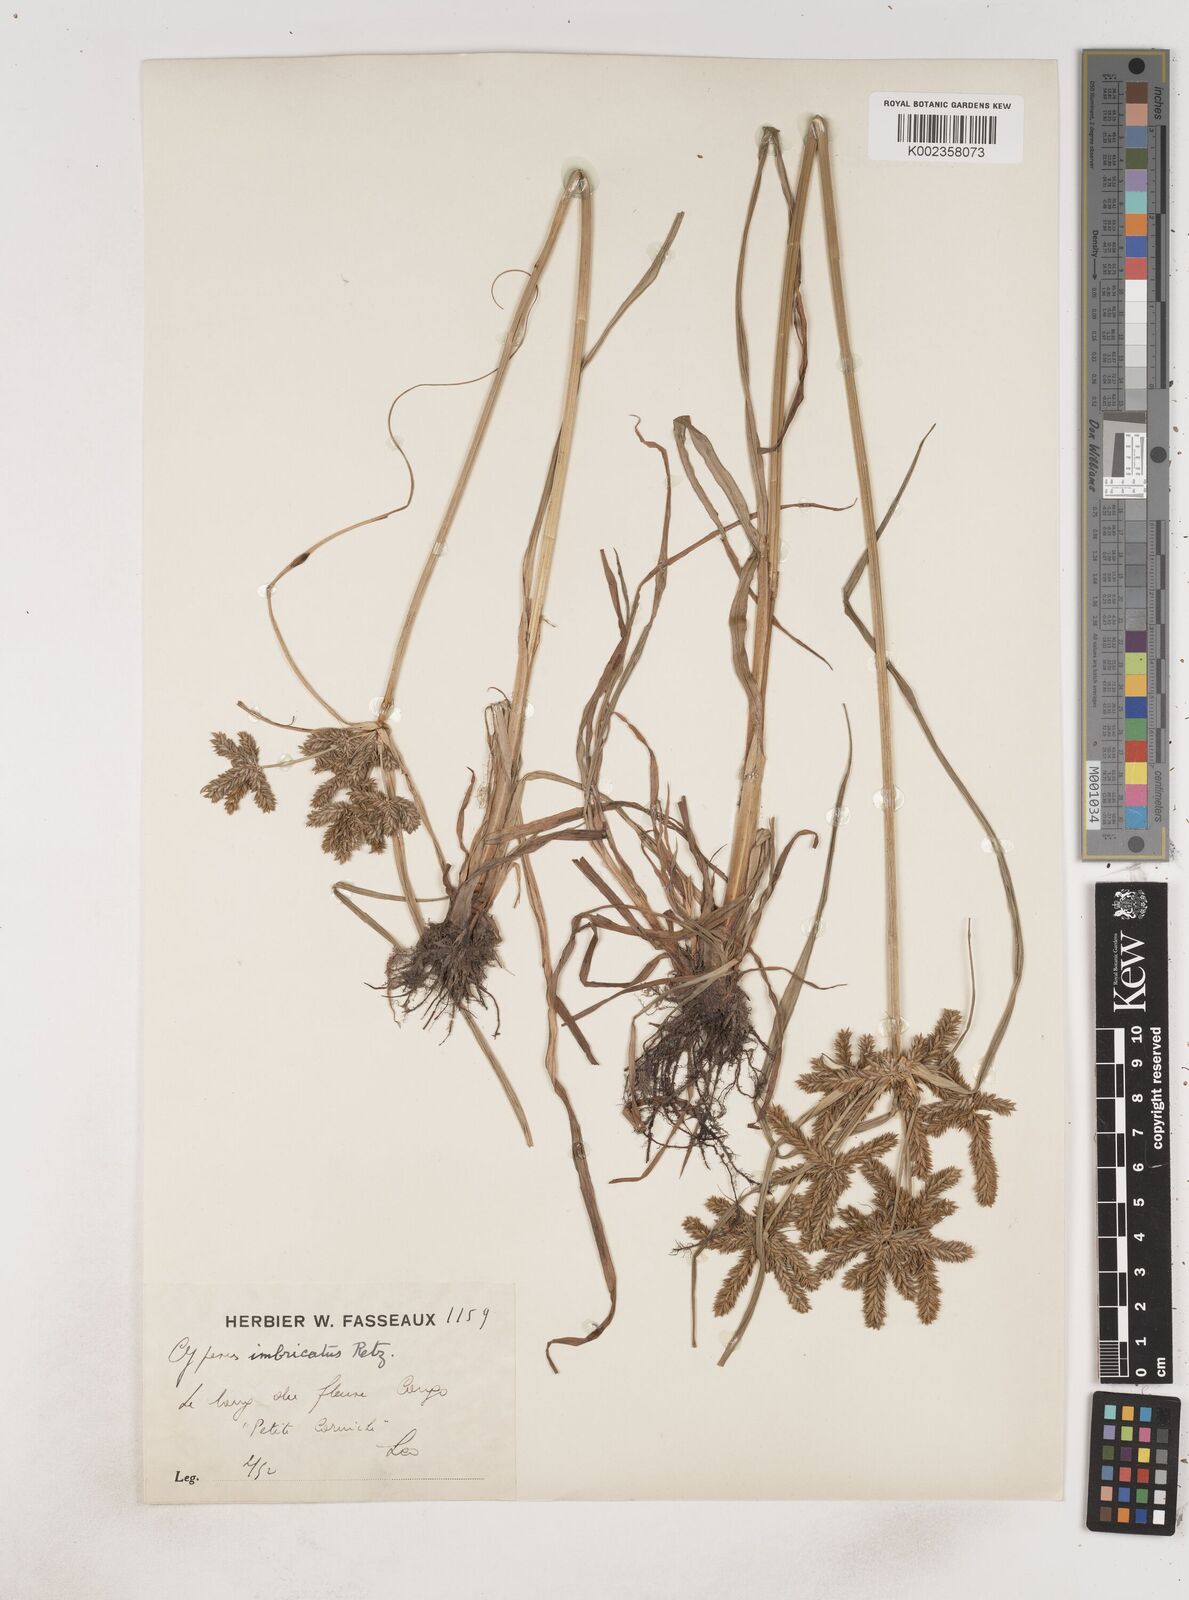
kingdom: Plantae
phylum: Tracheophyta
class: Liliopsida
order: Poales
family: Cyperaceae
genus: Cyperus
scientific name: Cyperus imbricatus
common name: Shingle flatsedge
